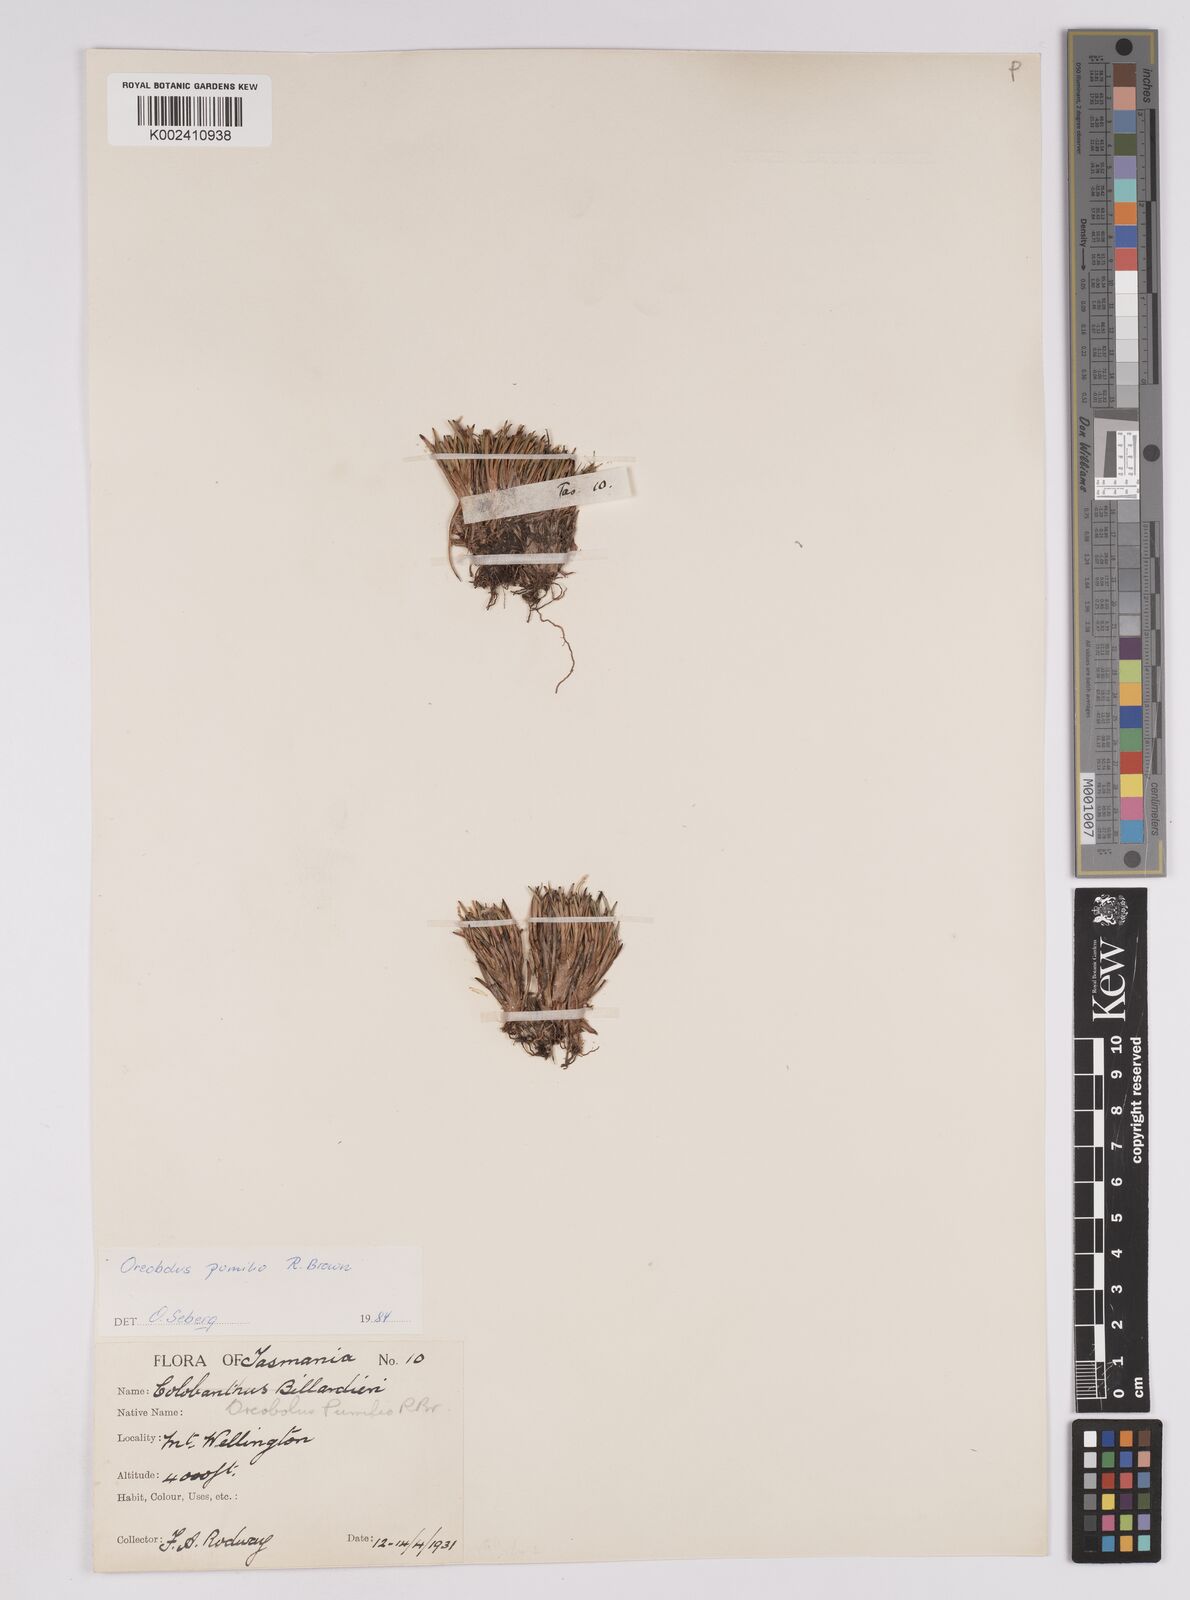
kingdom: Plantae
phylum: Tracheophyta
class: Liliopsida
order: Poales
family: Cyperaceae
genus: Oreobolus
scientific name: Oreobolus pumilio
